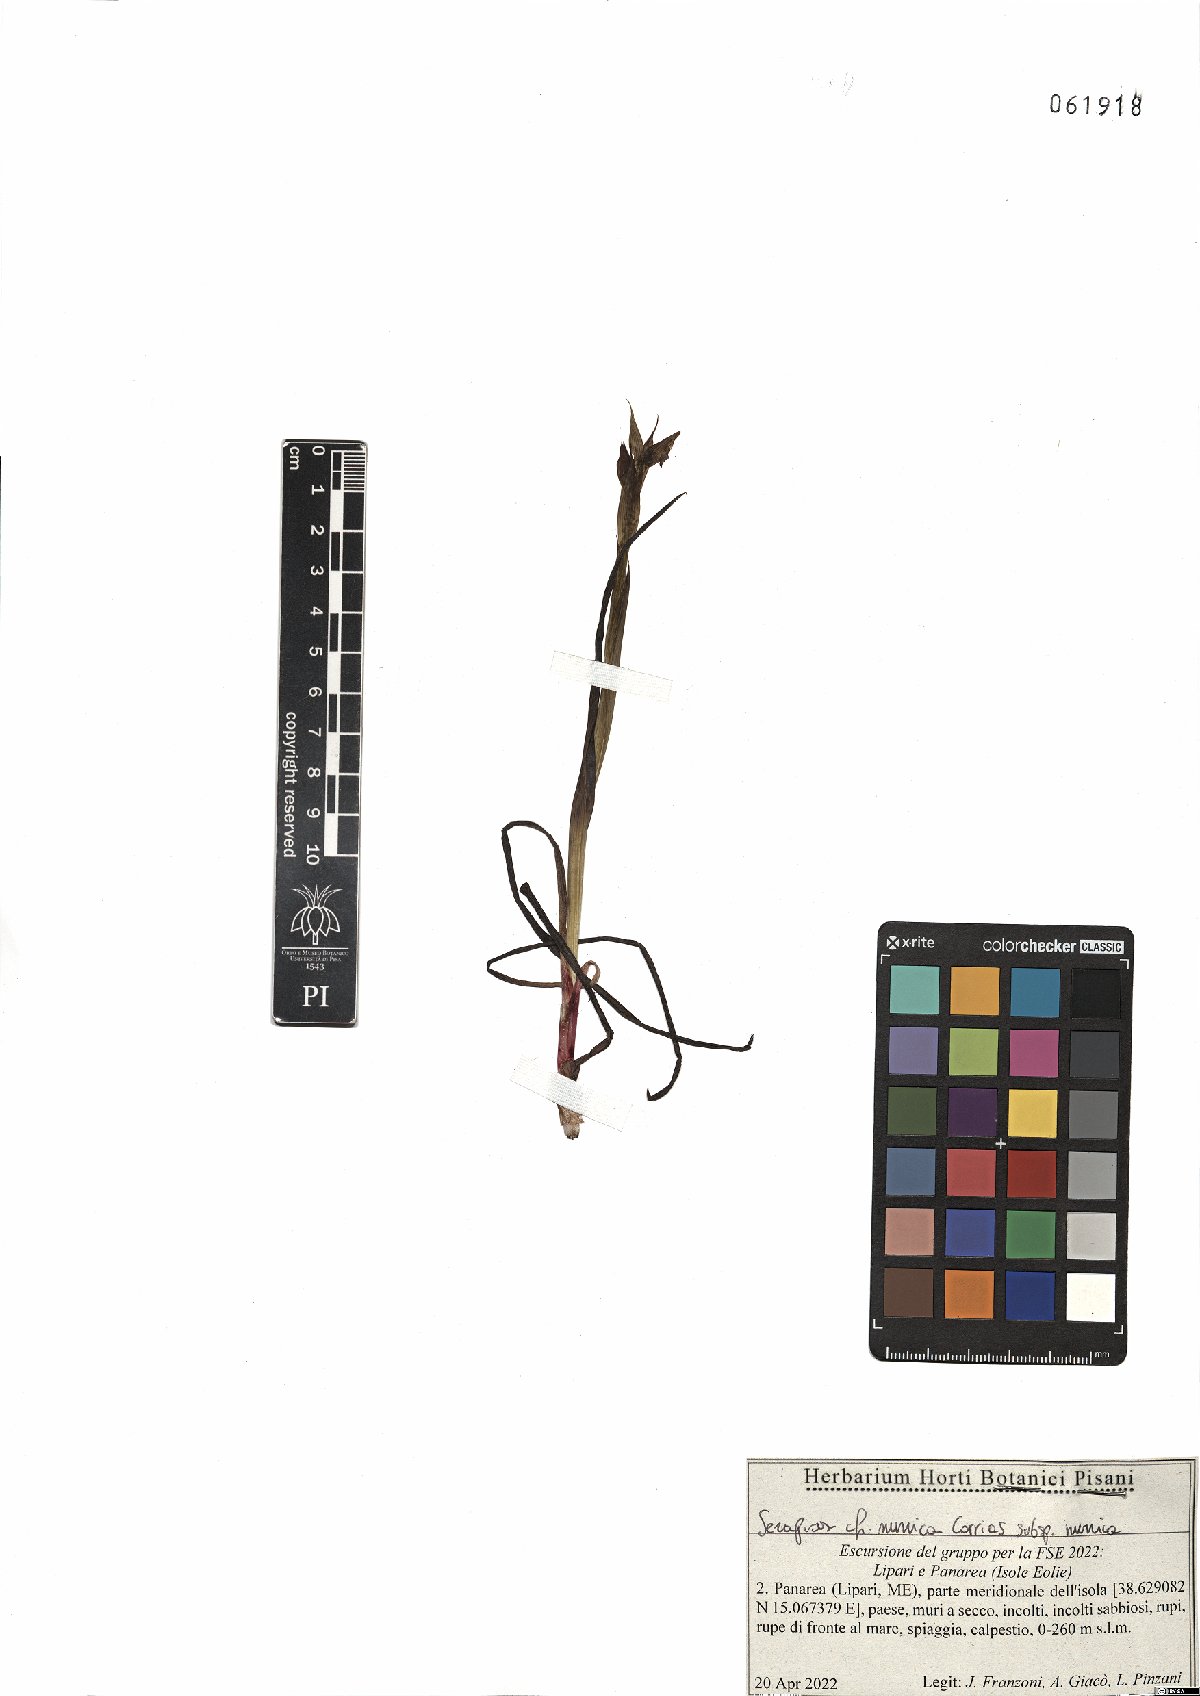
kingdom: Plantae
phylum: Tracheophyta
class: Liliopsida
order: Asparagales
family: Orchidaceae
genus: Serapias
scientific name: Serapias nurrica
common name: Sérapias de la nurra
